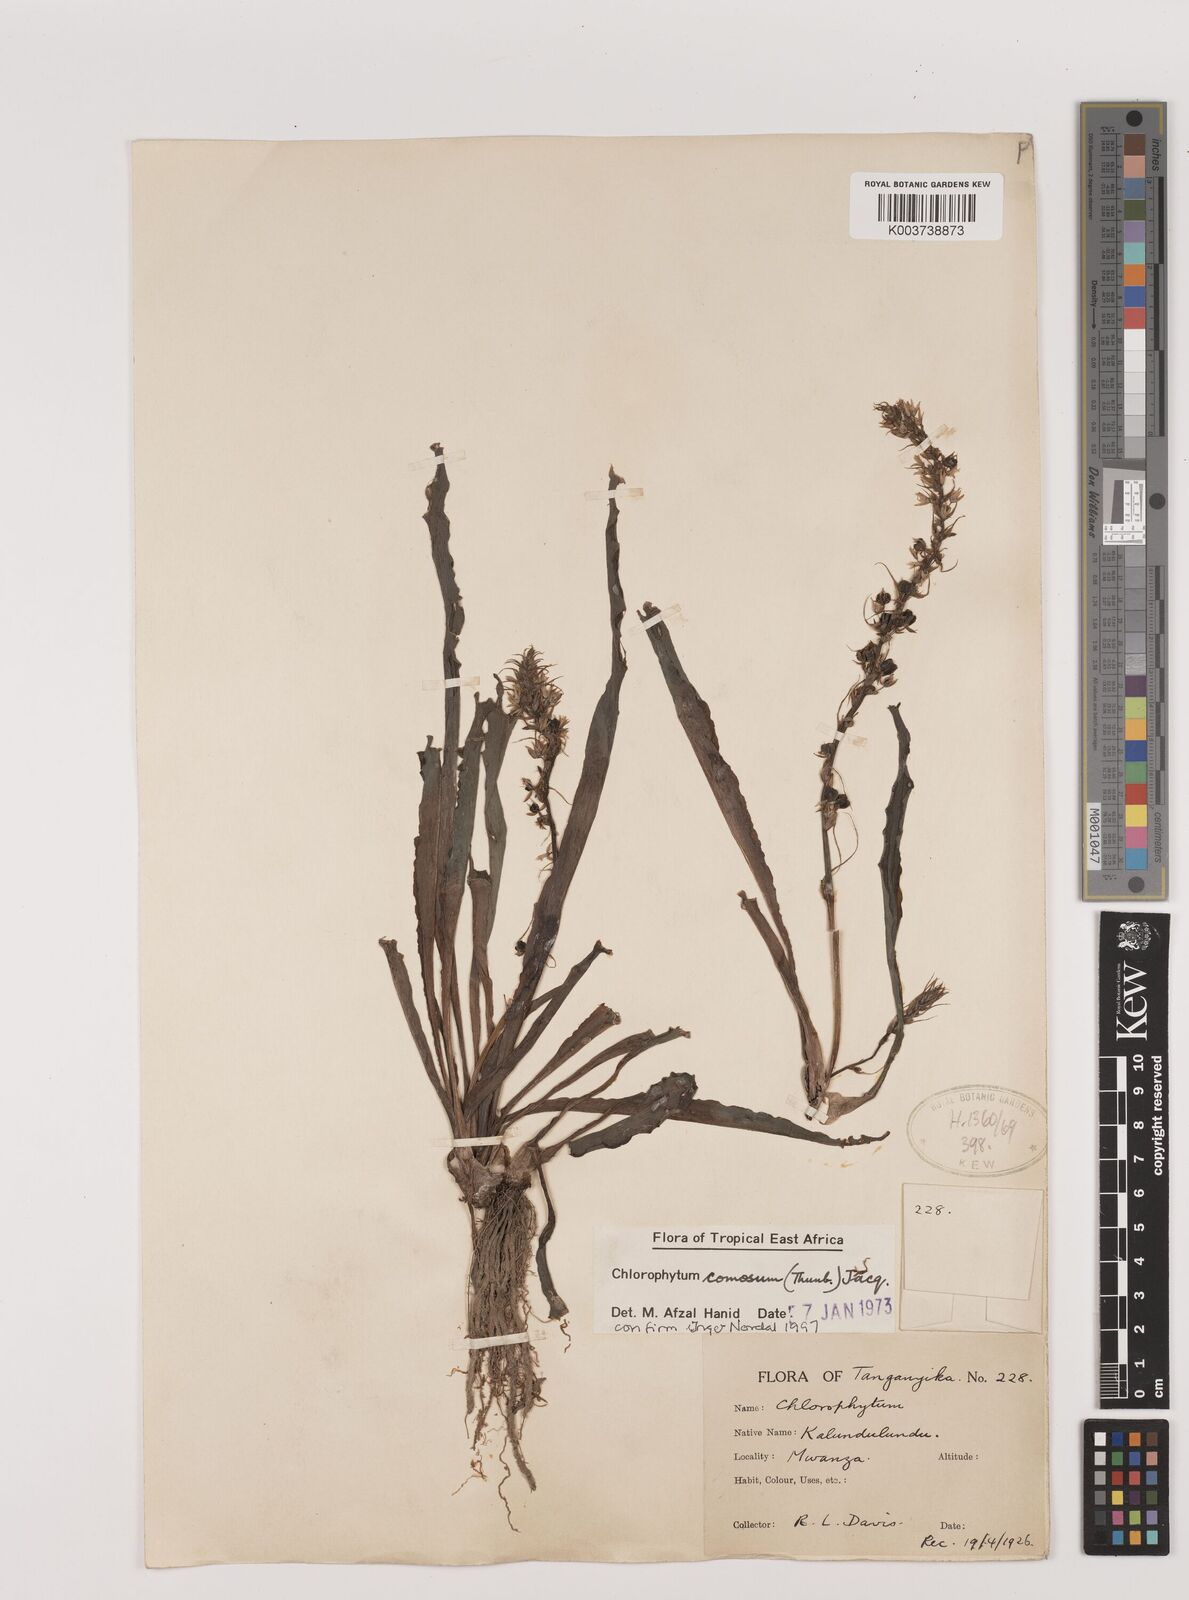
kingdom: Plantae
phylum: Tracheophyta
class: Liliopsida
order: Asparagales
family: Asparagaceae
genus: Chlorophytum
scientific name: Chlorophytum comosum
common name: Spider plant
